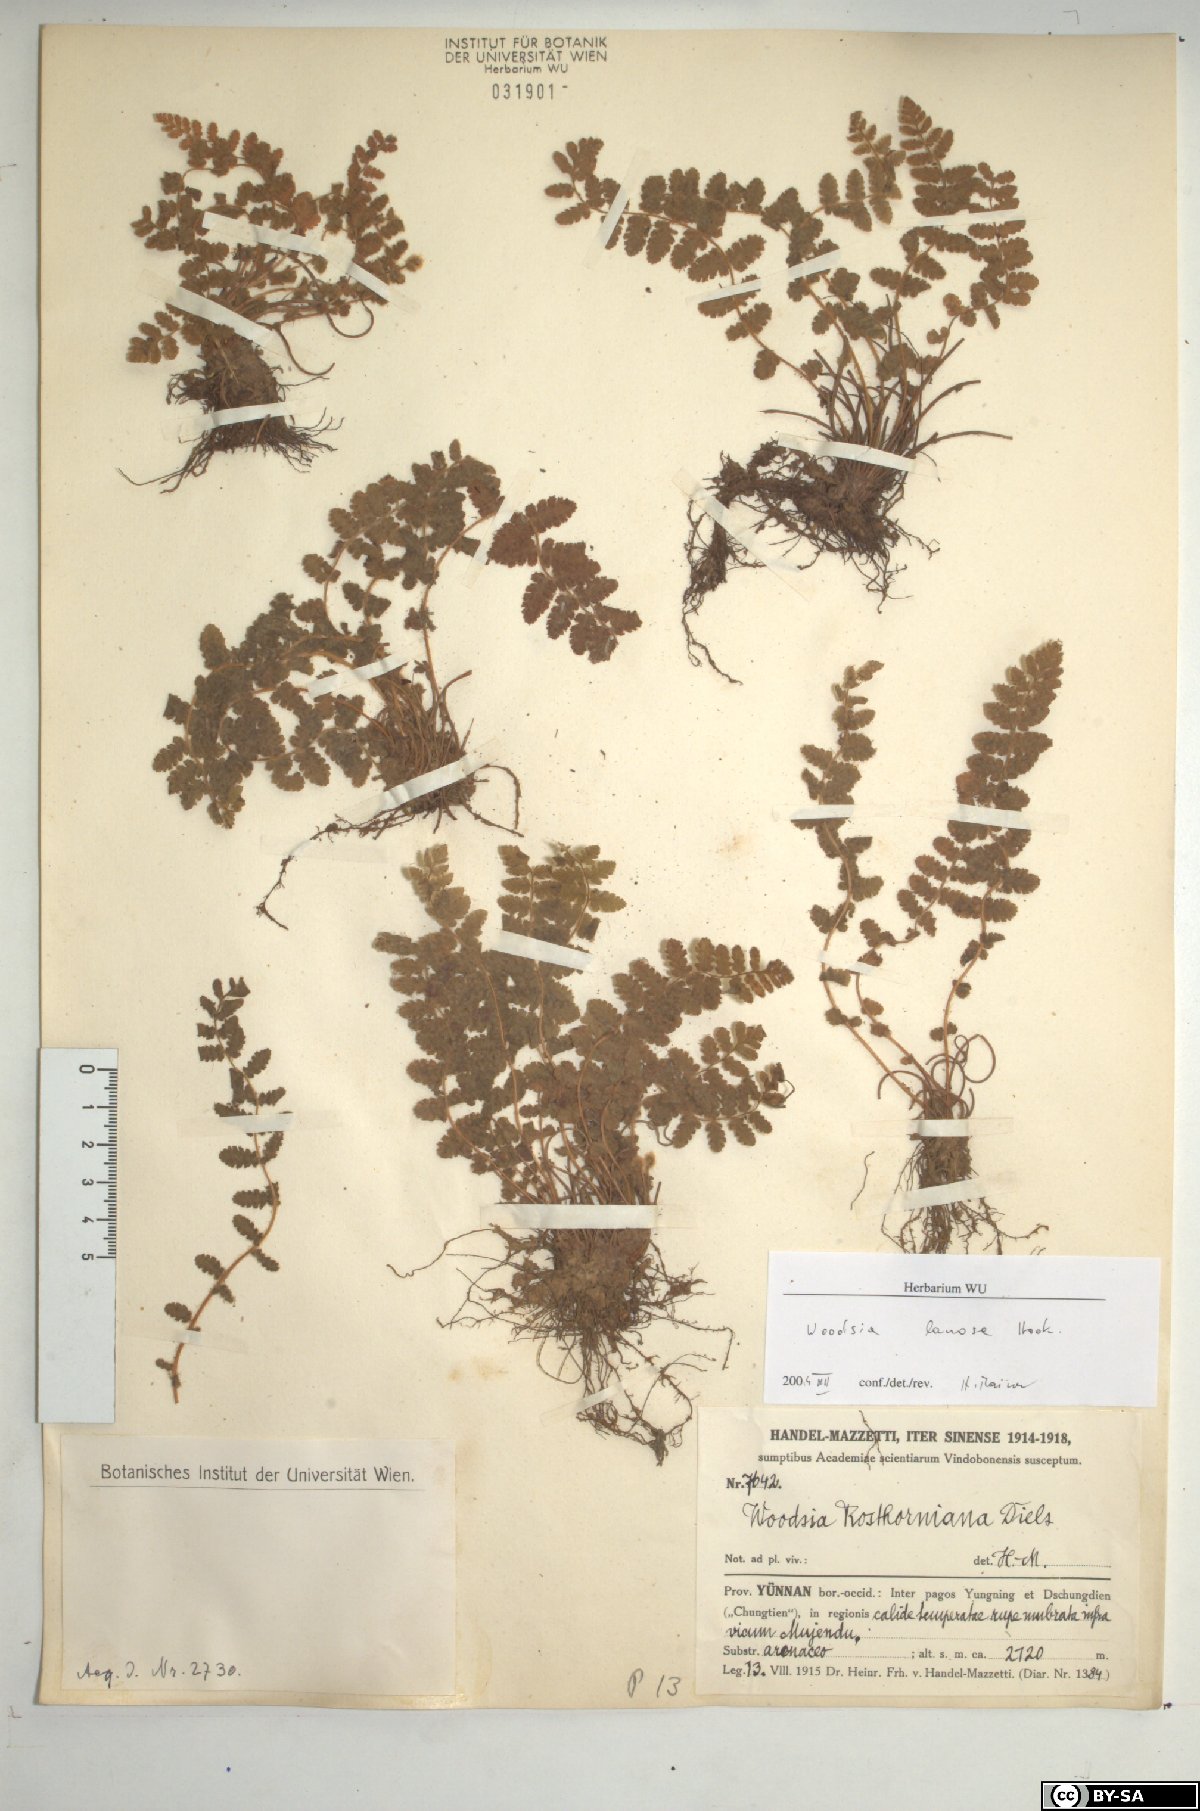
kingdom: Plantae
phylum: Tracheophyta
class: Polypodiopsida
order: Polypodiales
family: Woodsiaceae
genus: Woodsia
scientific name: Woodsia rosthorniana
